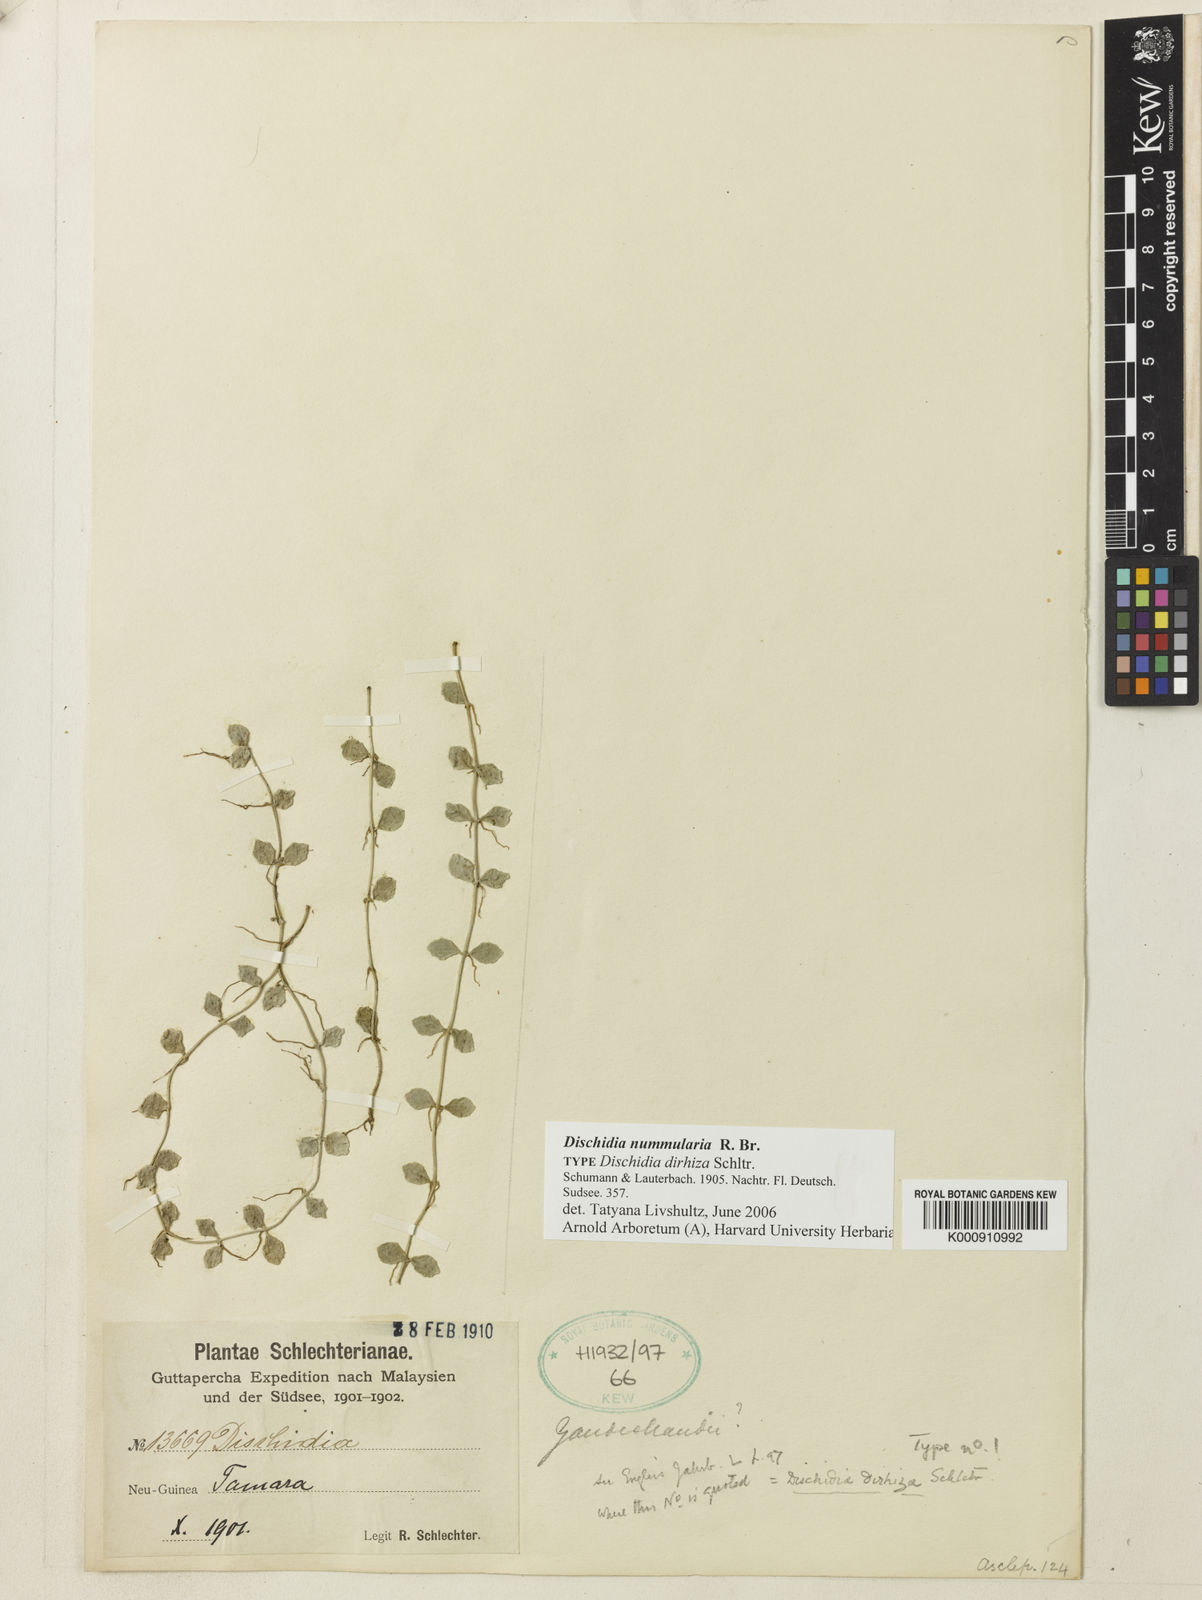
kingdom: Plantae
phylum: Tracheophyta
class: Magnoliopsida
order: Gentianales
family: Apocynaceae
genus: Dischidia
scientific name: Dischidia nummularia
